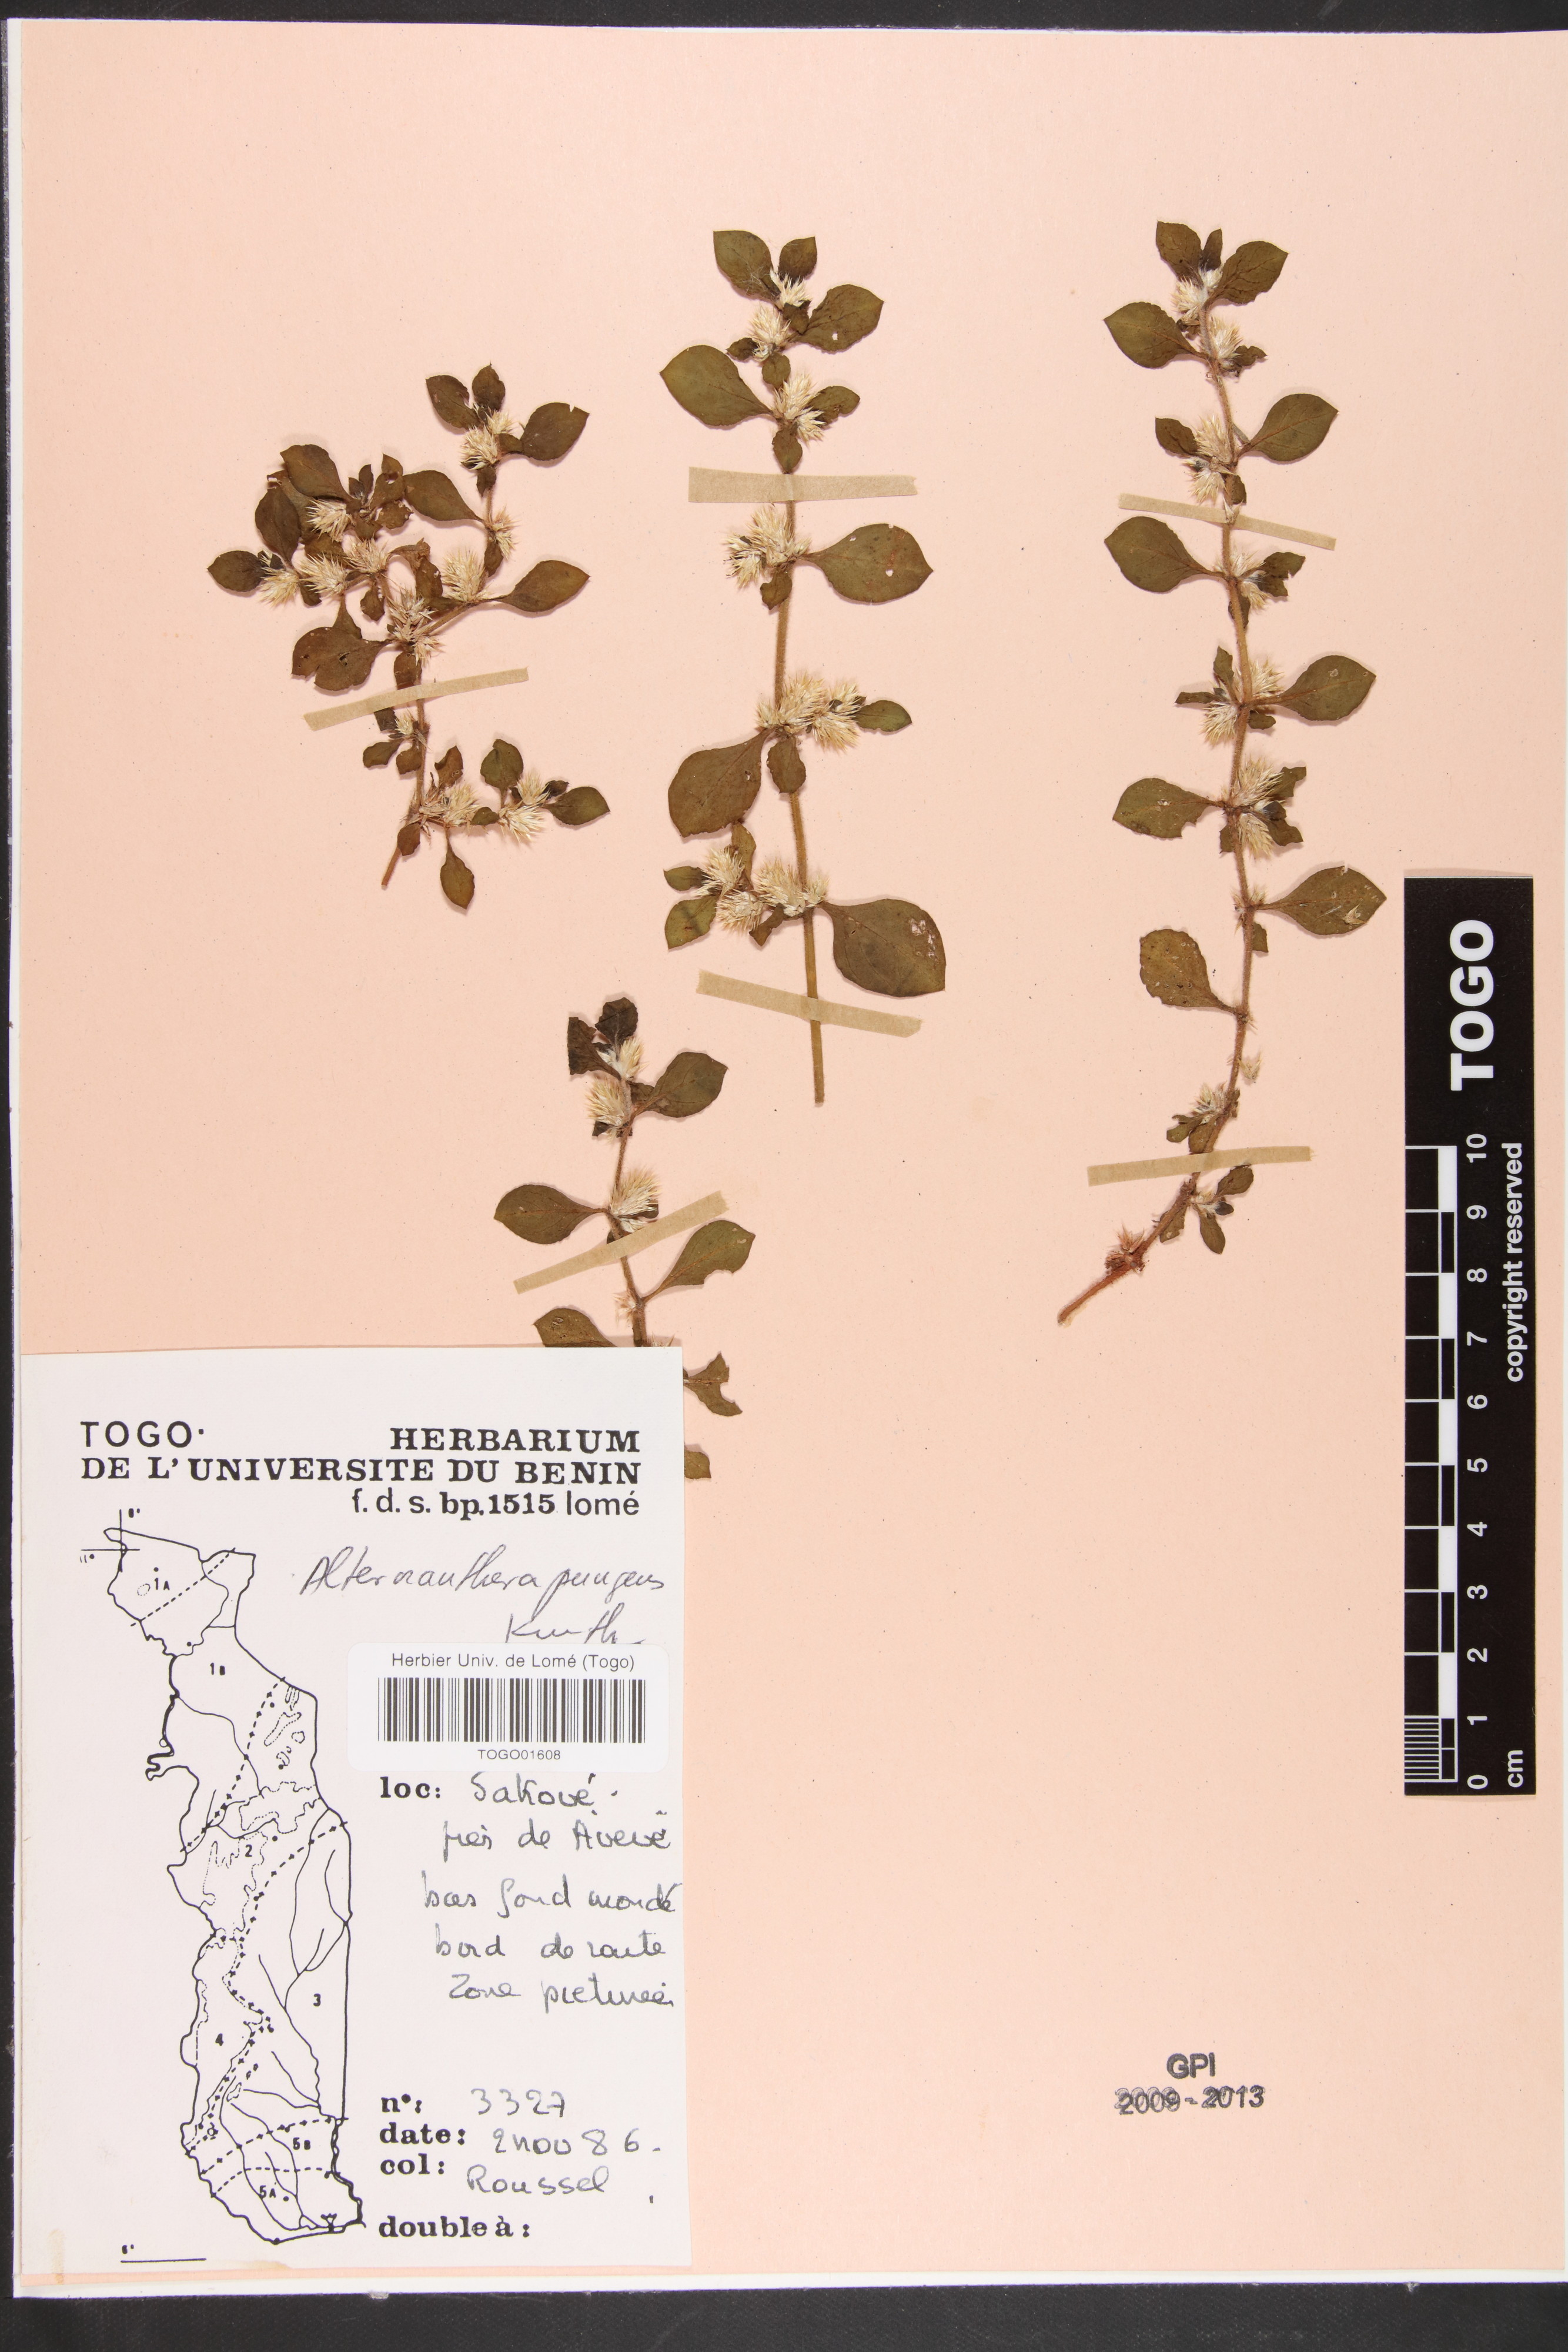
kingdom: Plantae
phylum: Tracheophyta
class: Magnoliopsida
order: Caryophyllales
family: Amaranthaceae
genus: Alternanthera
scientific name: Alternanthera pungens
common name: Khakiweed
